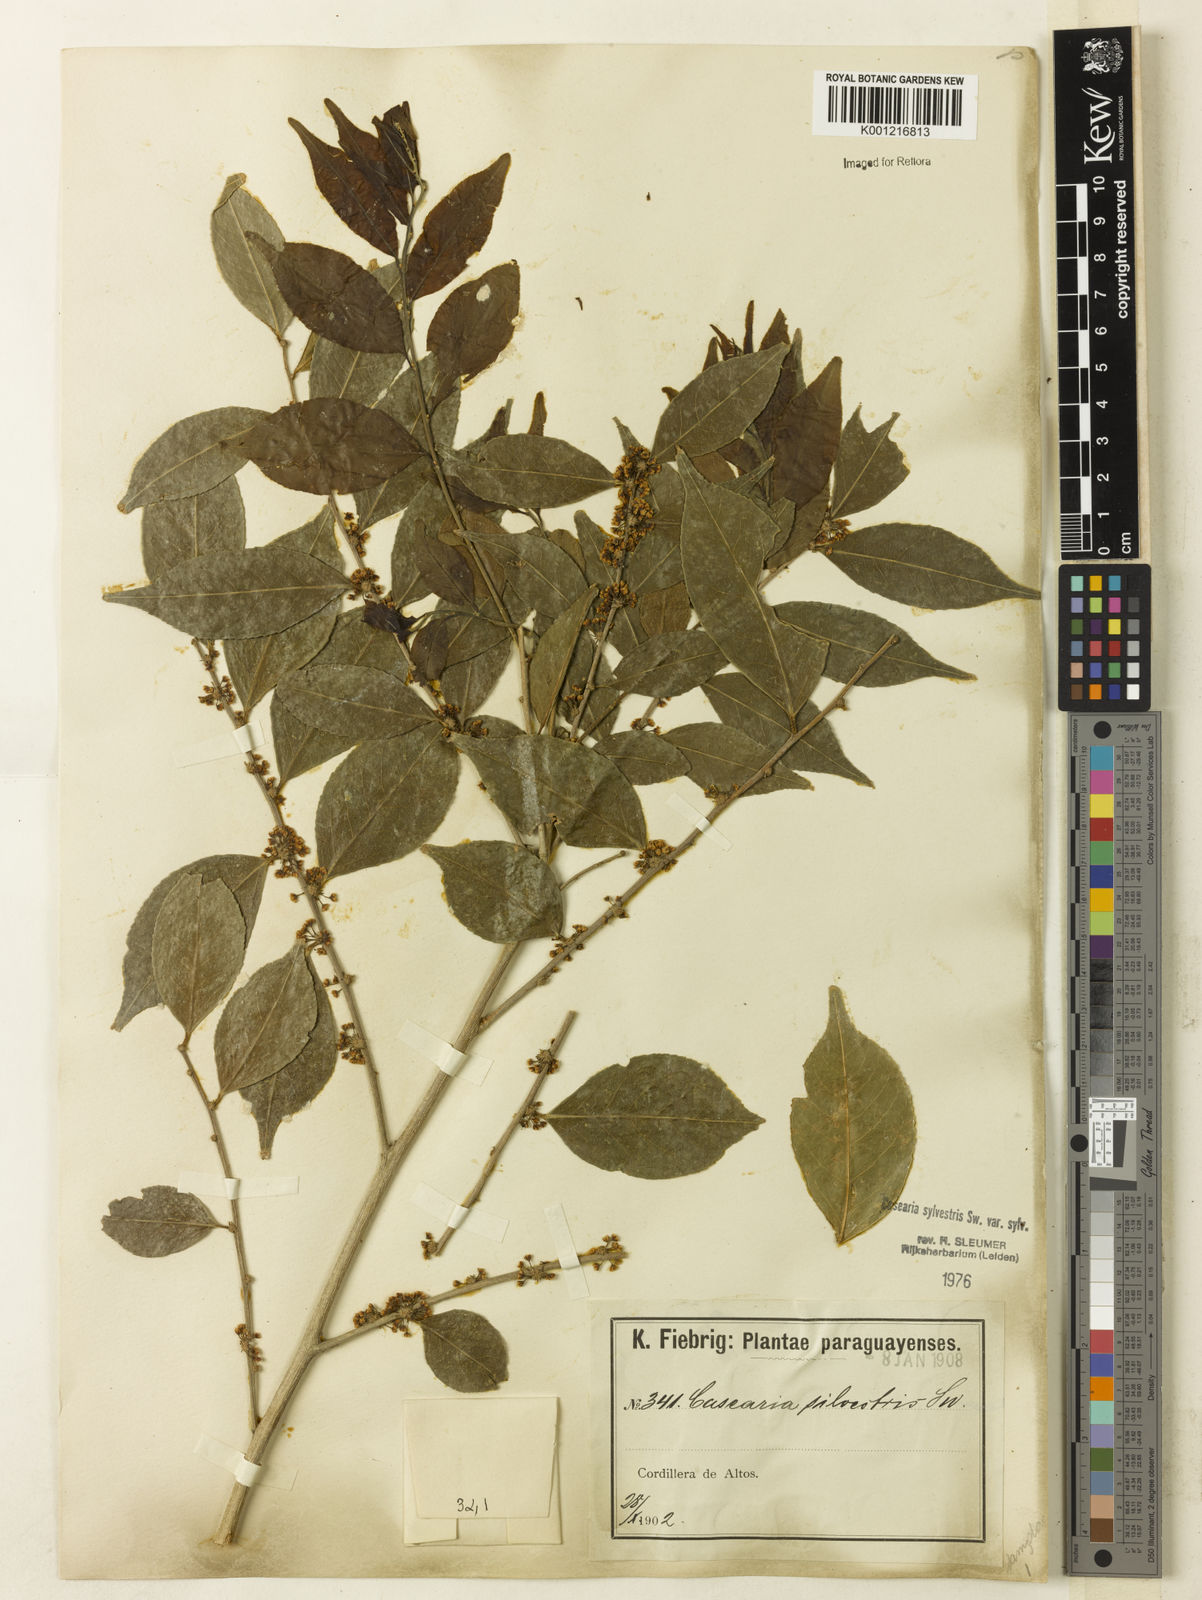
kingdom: Plantae
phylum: Tracheophyta
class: Magnoliopsida
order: Malpighiales
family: Salicaceae
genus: Casearia
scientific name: Casearia sylvestris
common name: Wild sage
